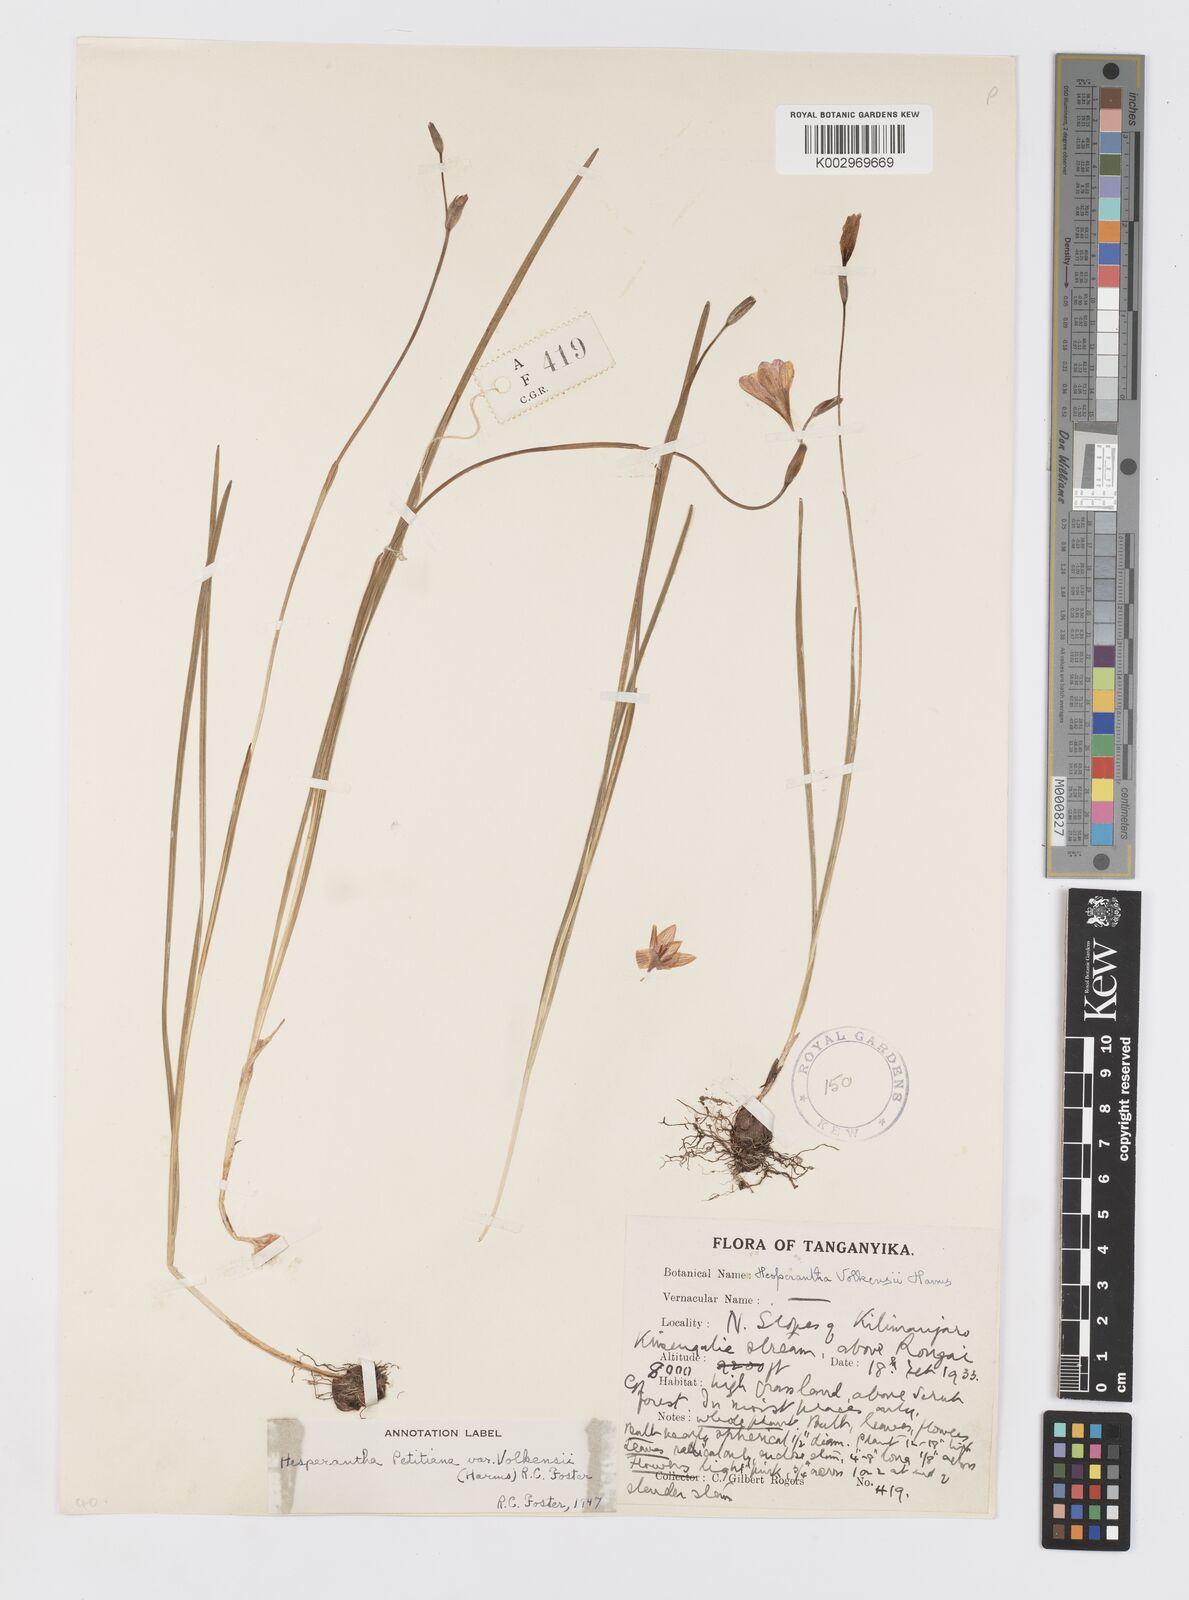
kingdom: Plantae
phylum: Tracheophyta
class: Liliopsida
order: Asparagales
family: Iridaceae
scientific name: Iridaceae
